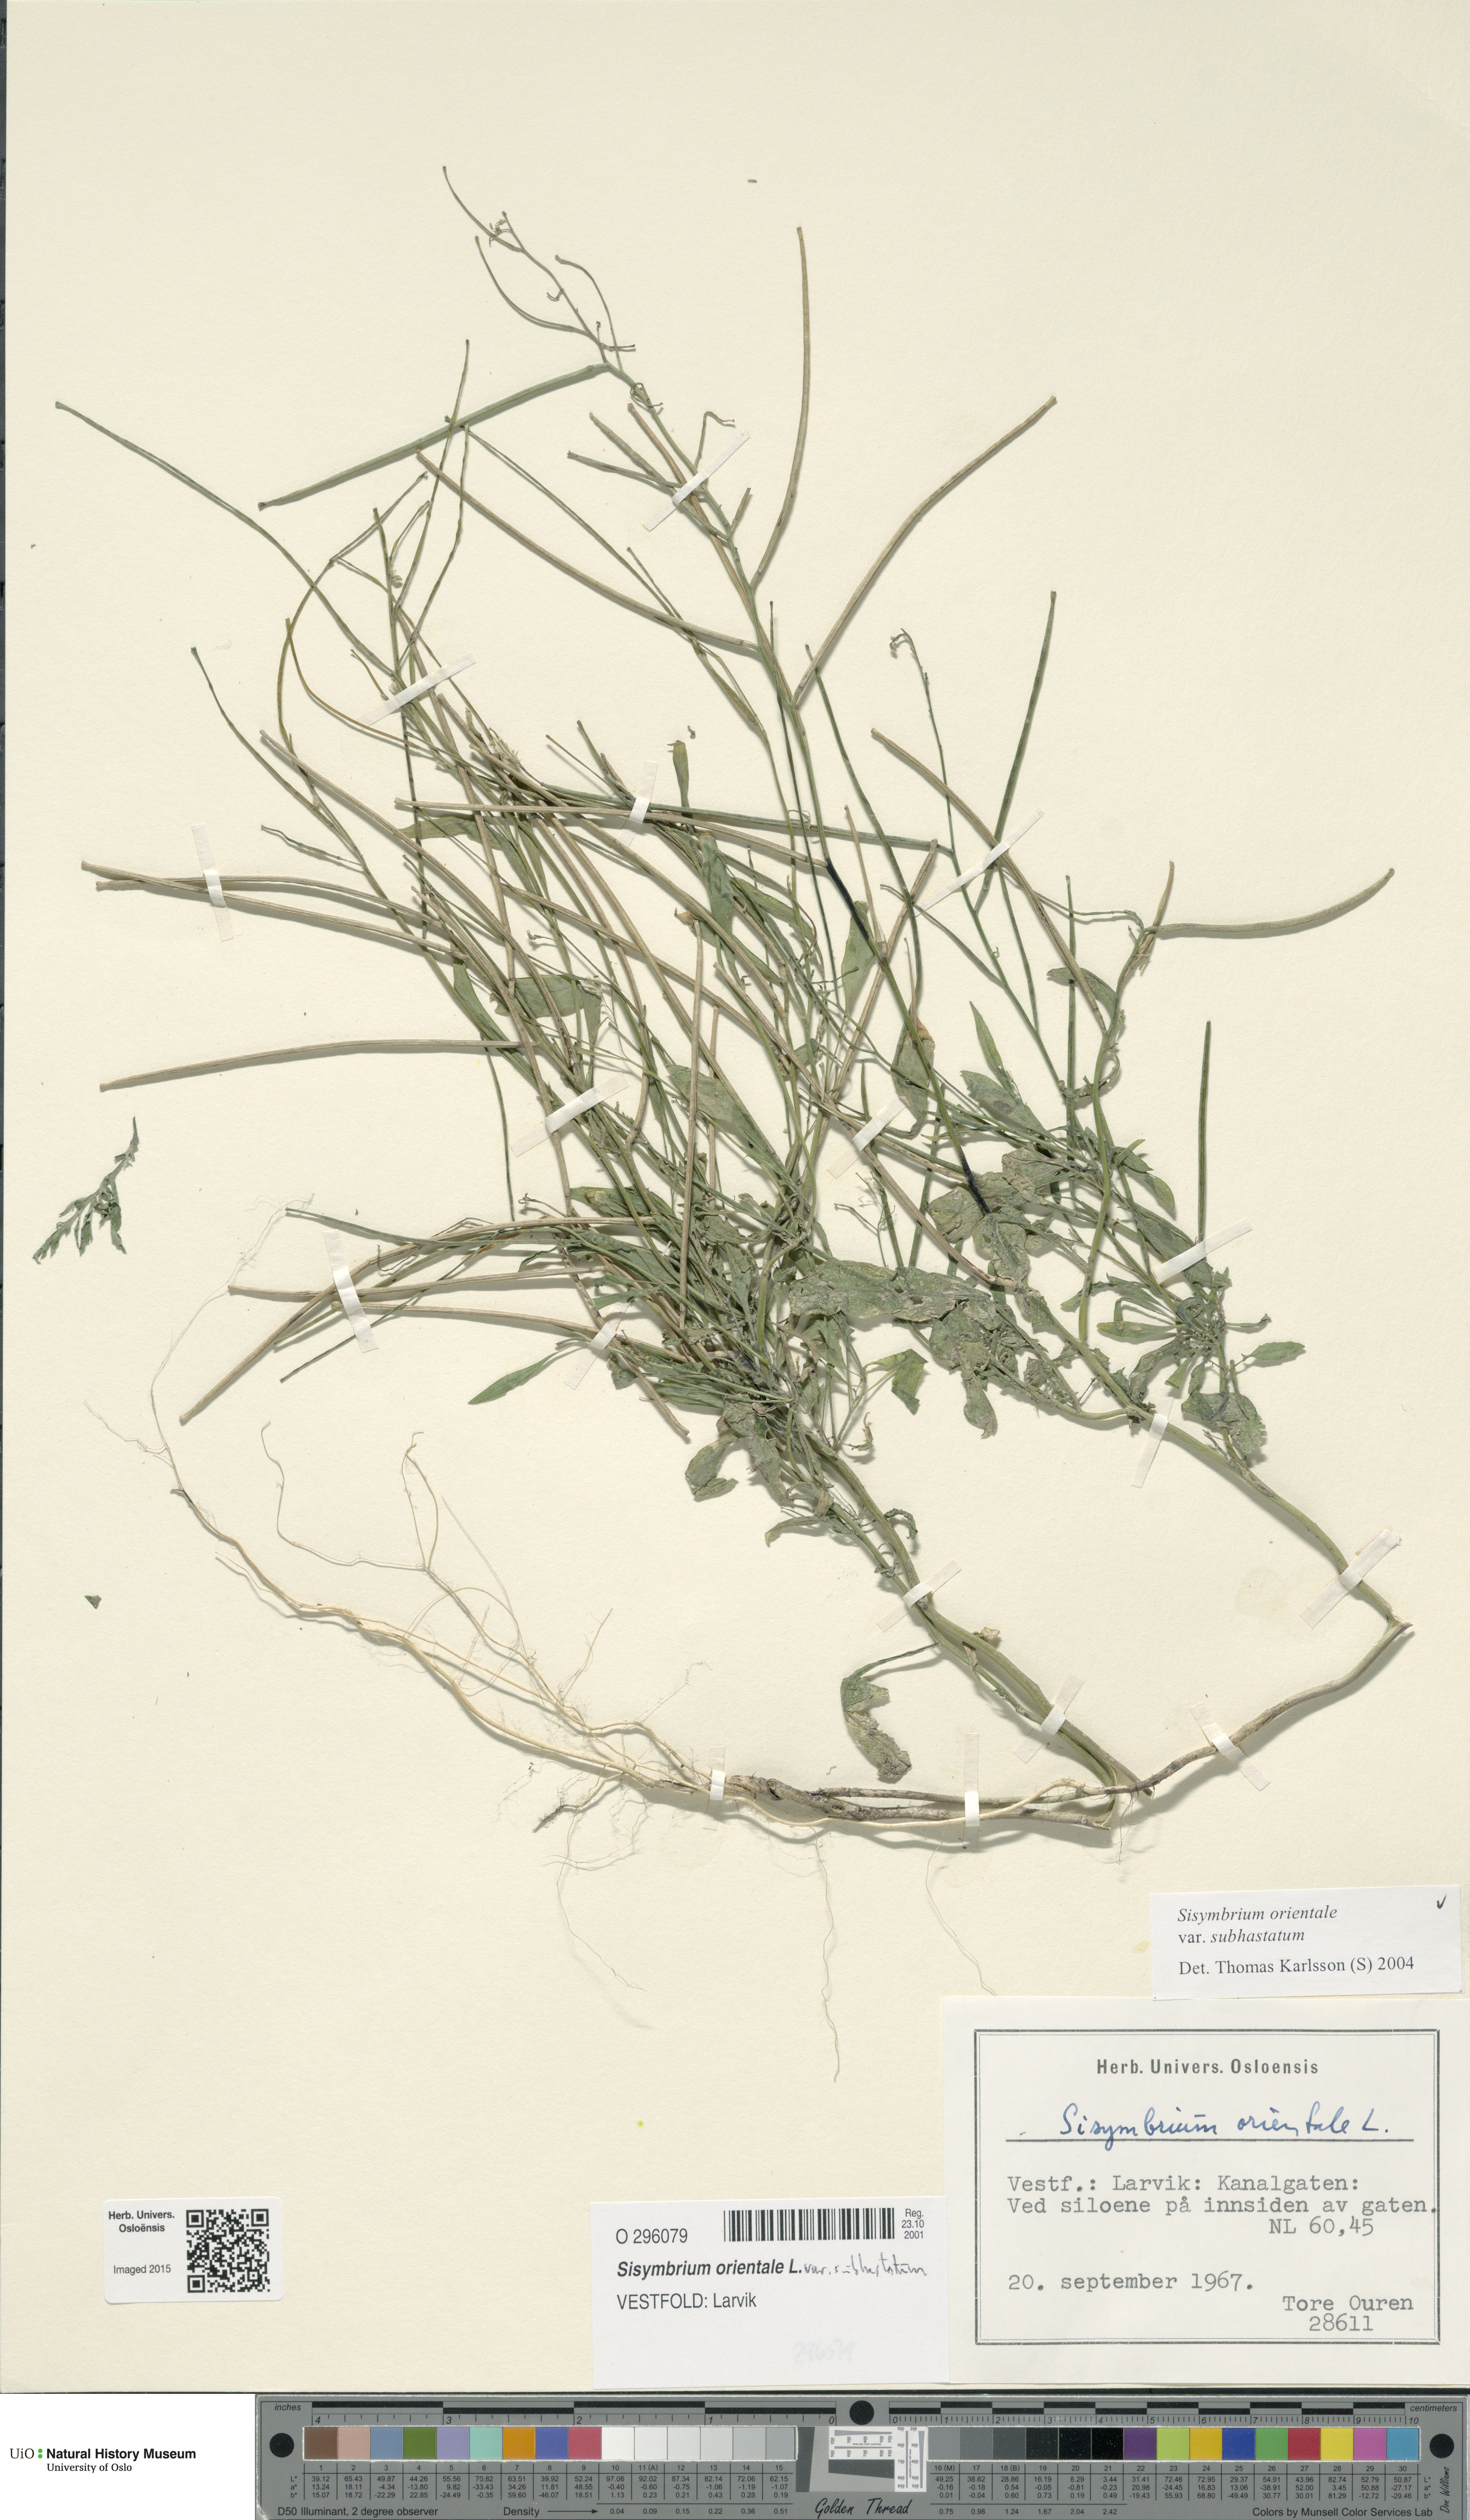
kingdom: Plantae
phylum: Tracheophyta
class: Magnoliopsida
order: Brassicales
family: Brassicaceae
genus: Sisymbrium
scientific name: Sisymbrium orientale
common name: Eastern rocket
